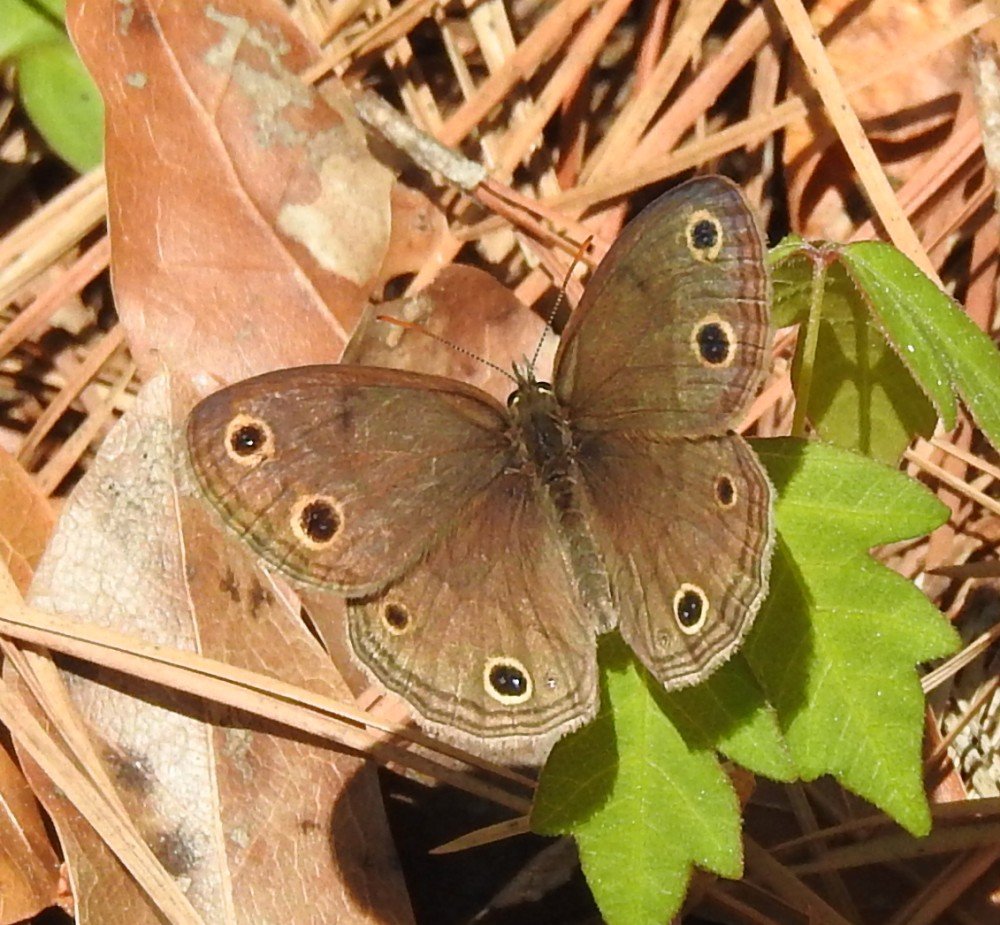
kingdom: Animalia
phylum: Arthropoda
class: Insecta
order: Lepidoptera
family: Nymphalidae
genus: Euptychia
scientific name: Euptychia cymela
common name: Little Wood Satyr
